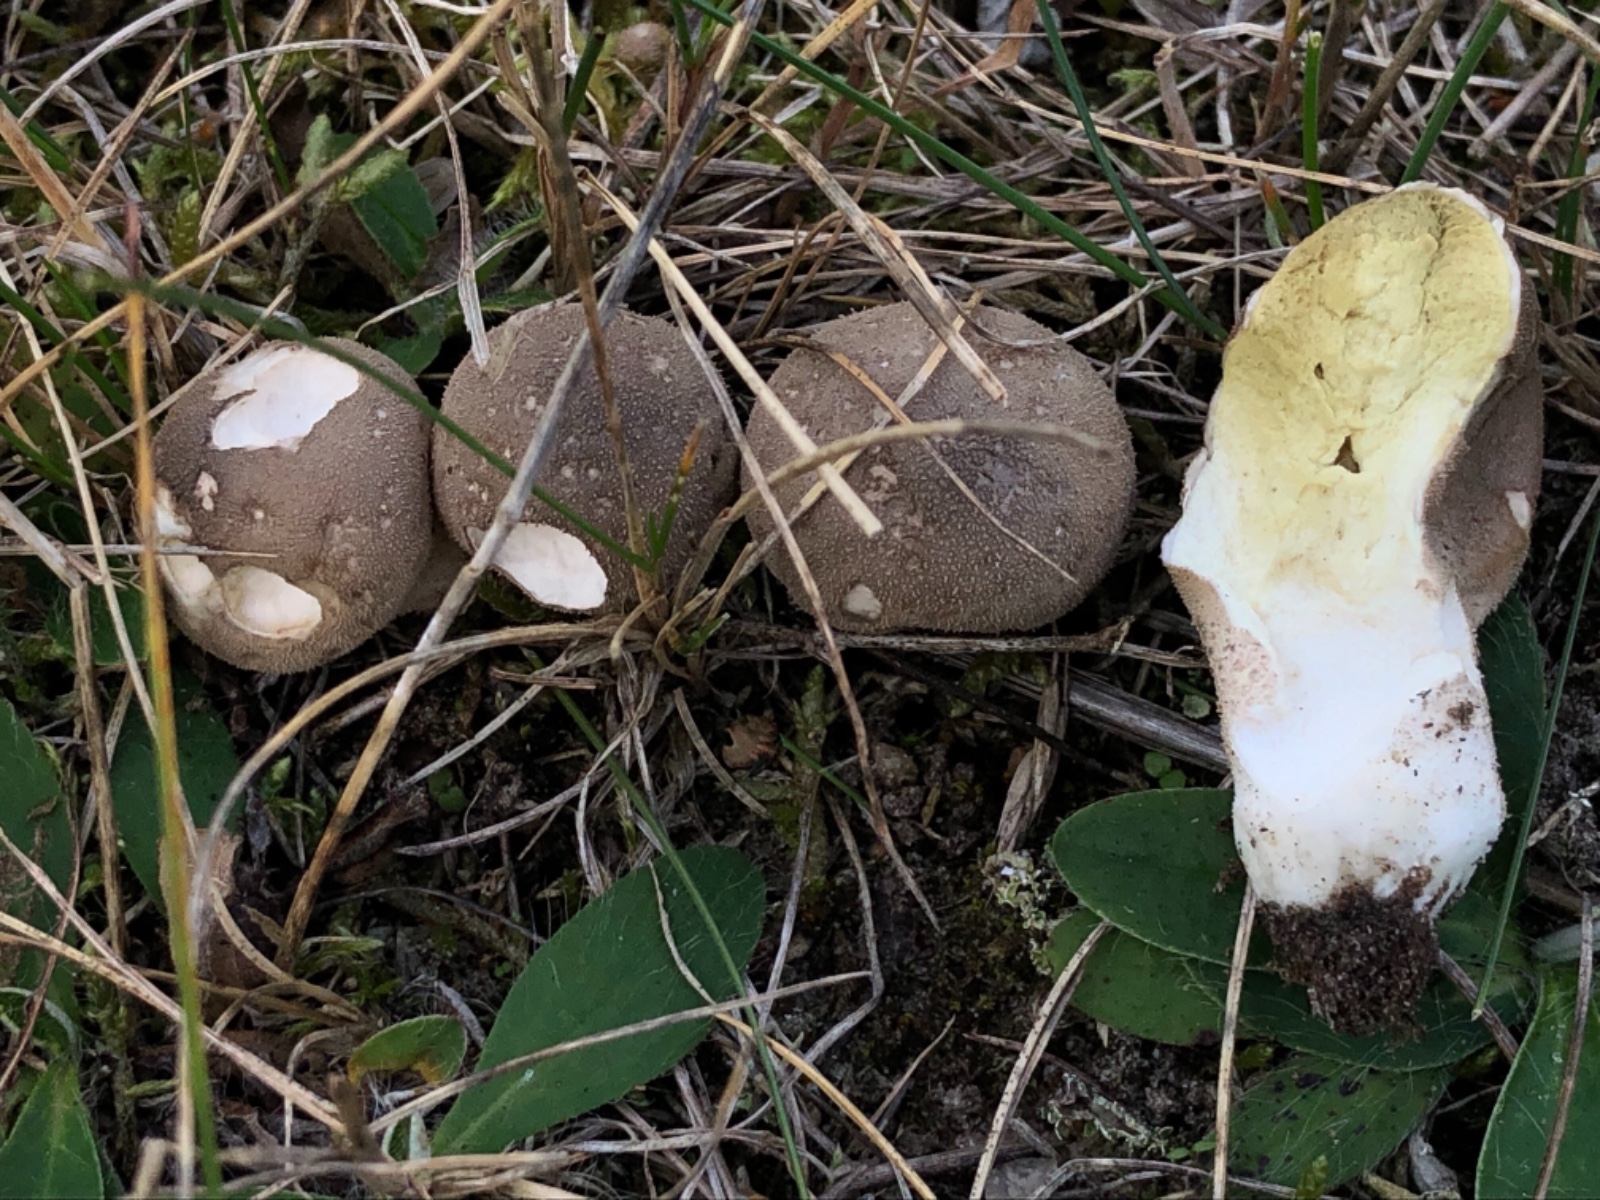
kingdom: Fungi
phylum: Basidiomycota
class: Agaricomycetes
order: Agaricales
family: Agaricaceae
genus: Lycoperdon
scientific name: Lycoperdon
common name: støvbold
